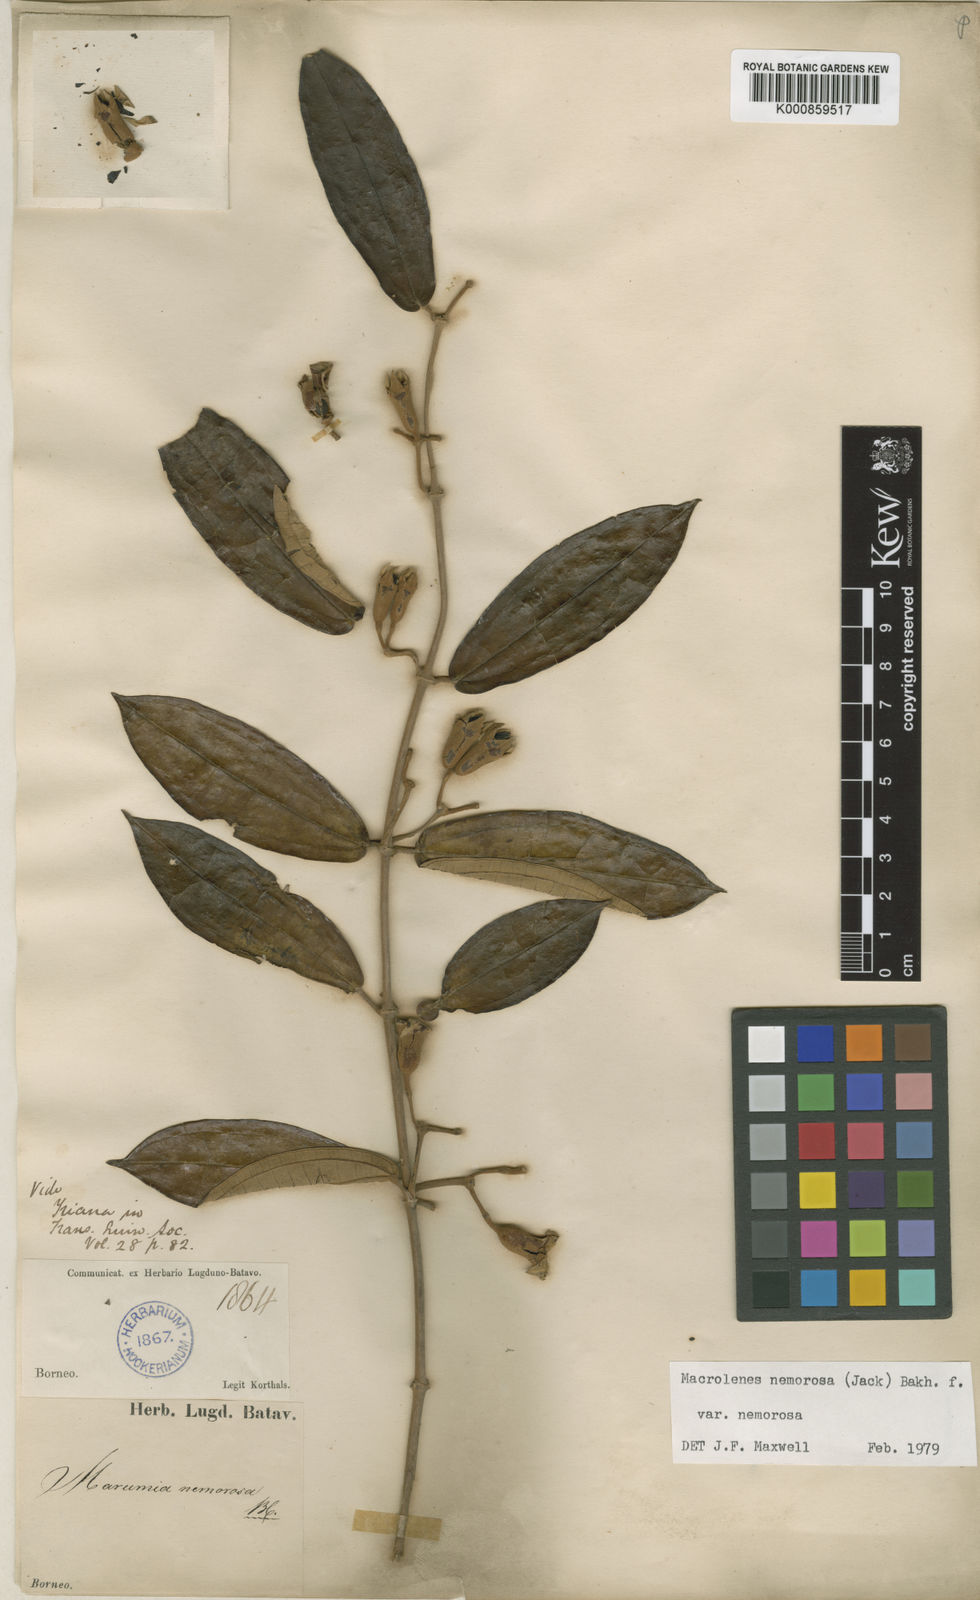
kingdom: Plantae
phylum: Tracheophyta
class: Magnoliopsida
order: Myrtales
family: Melastomataceae
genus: Macrolenes
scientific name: Macrolenes nemorosa
